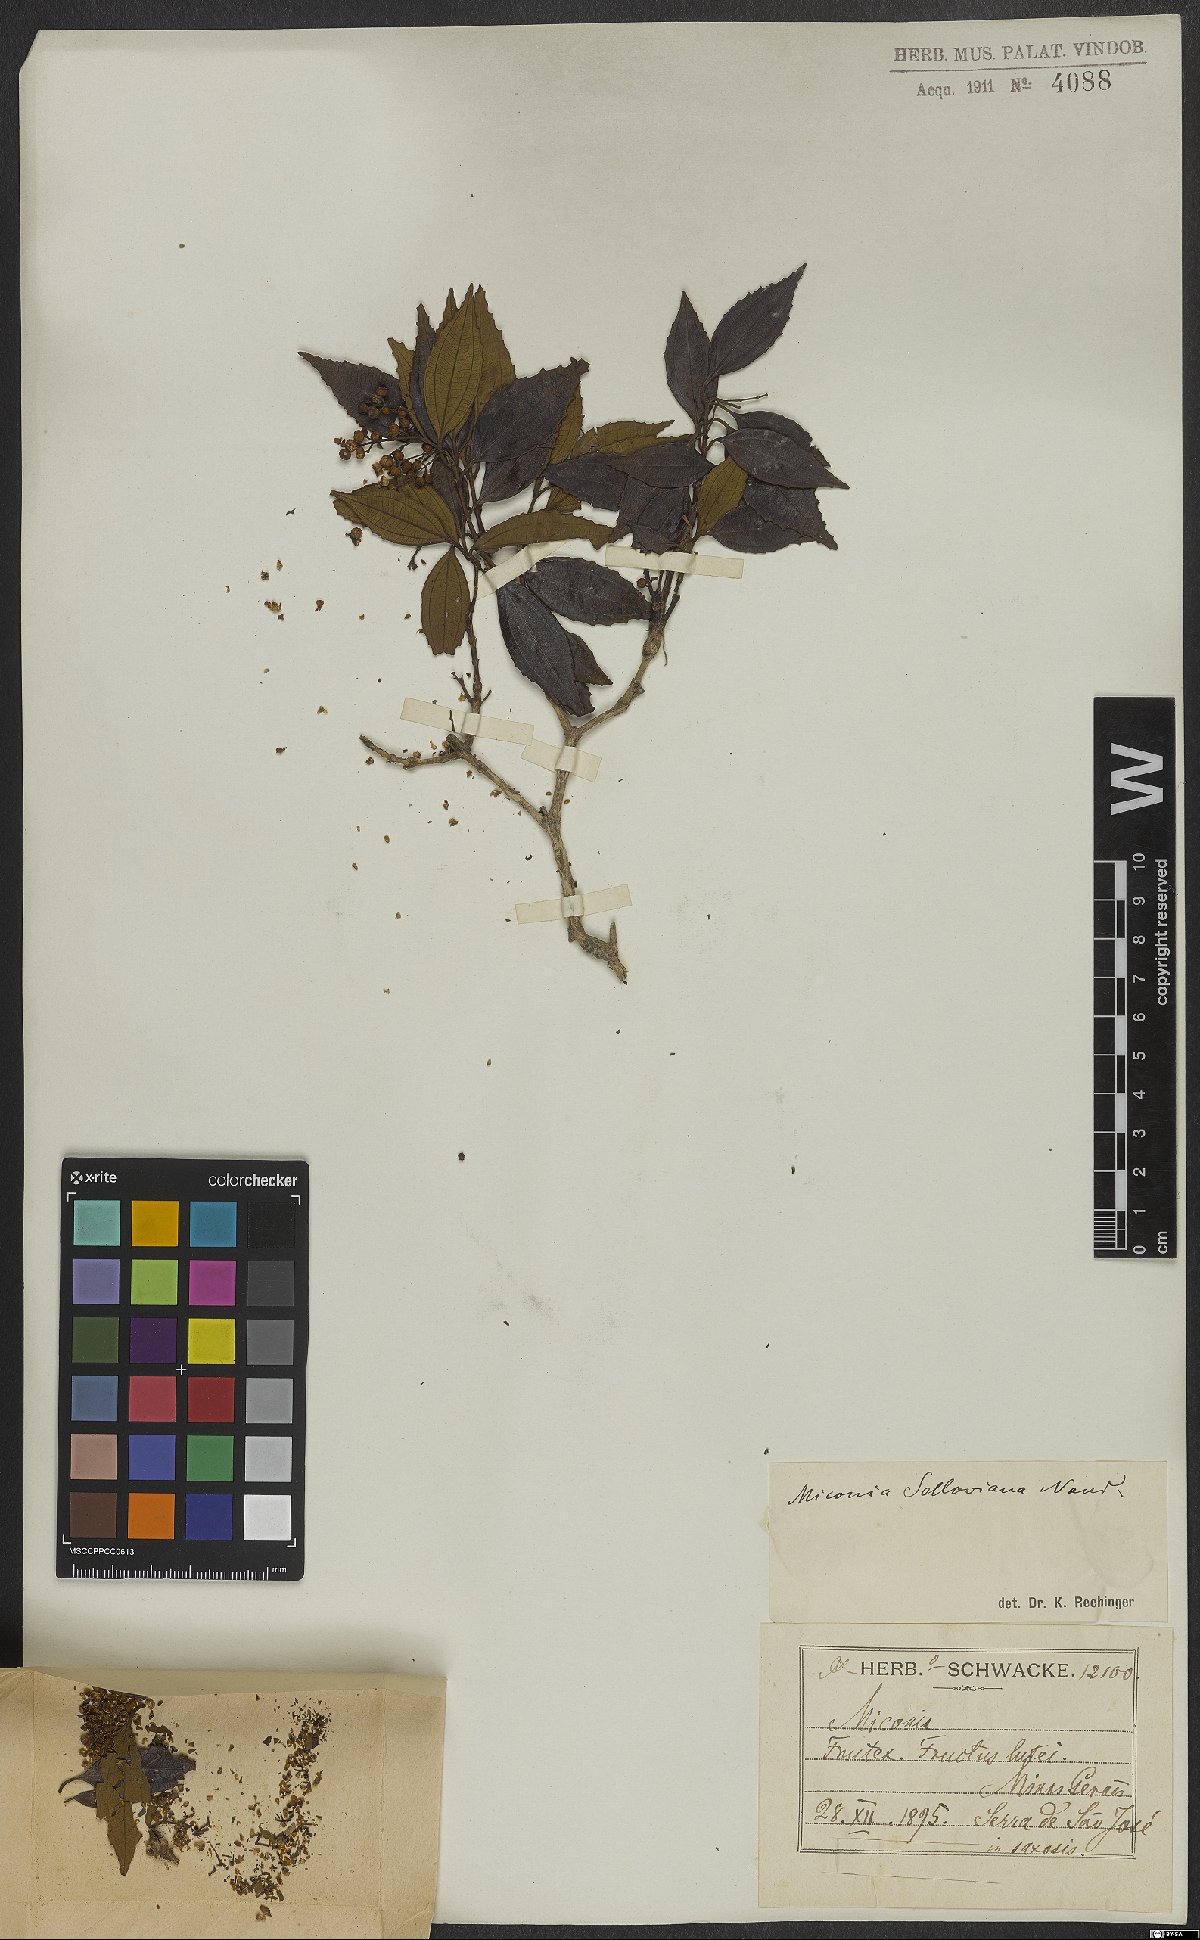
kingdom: Plantae
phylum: Tracheophyta
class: Magnoliopsida
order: Myrtales
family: Melastomataceae
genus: Miconia
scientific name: Miconia sellowiana
